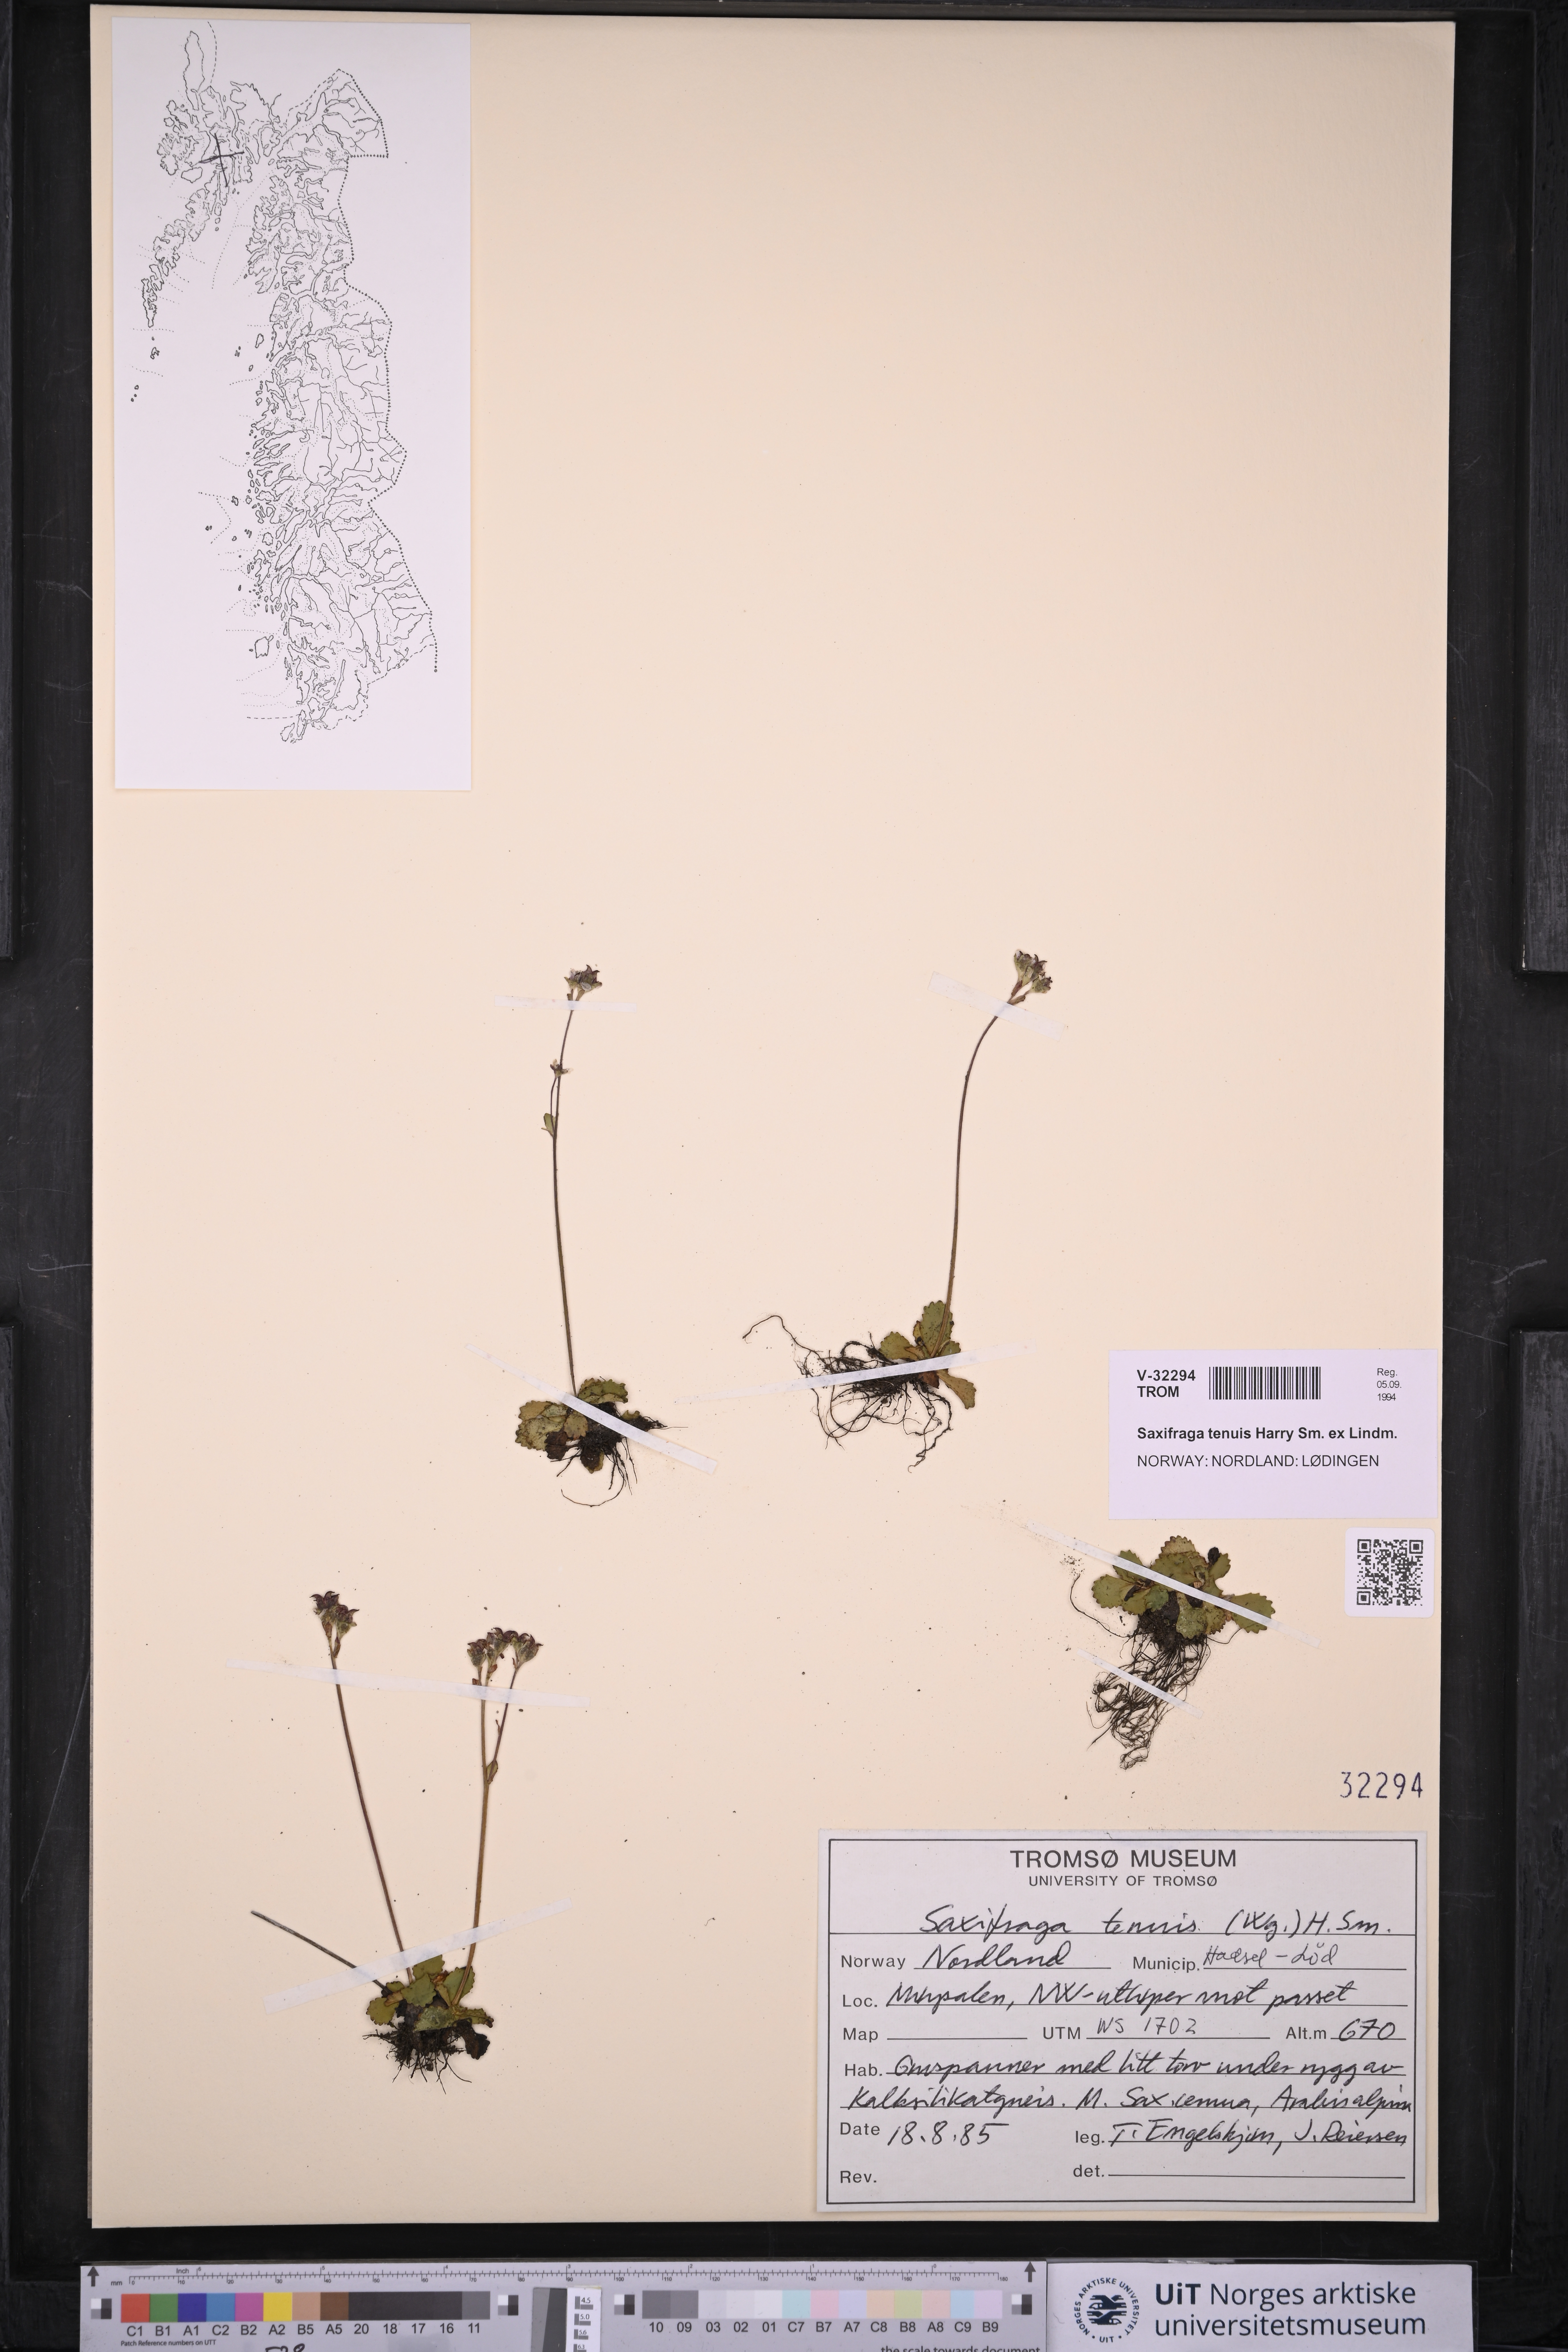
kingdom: Plantae
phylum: Tracheophyta
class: Magnoliopsida
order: Saxifragales
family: Saxifragaceae
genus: Micranthes
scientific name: Micranthes tenuis
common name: Ottertail pass saxifrage
